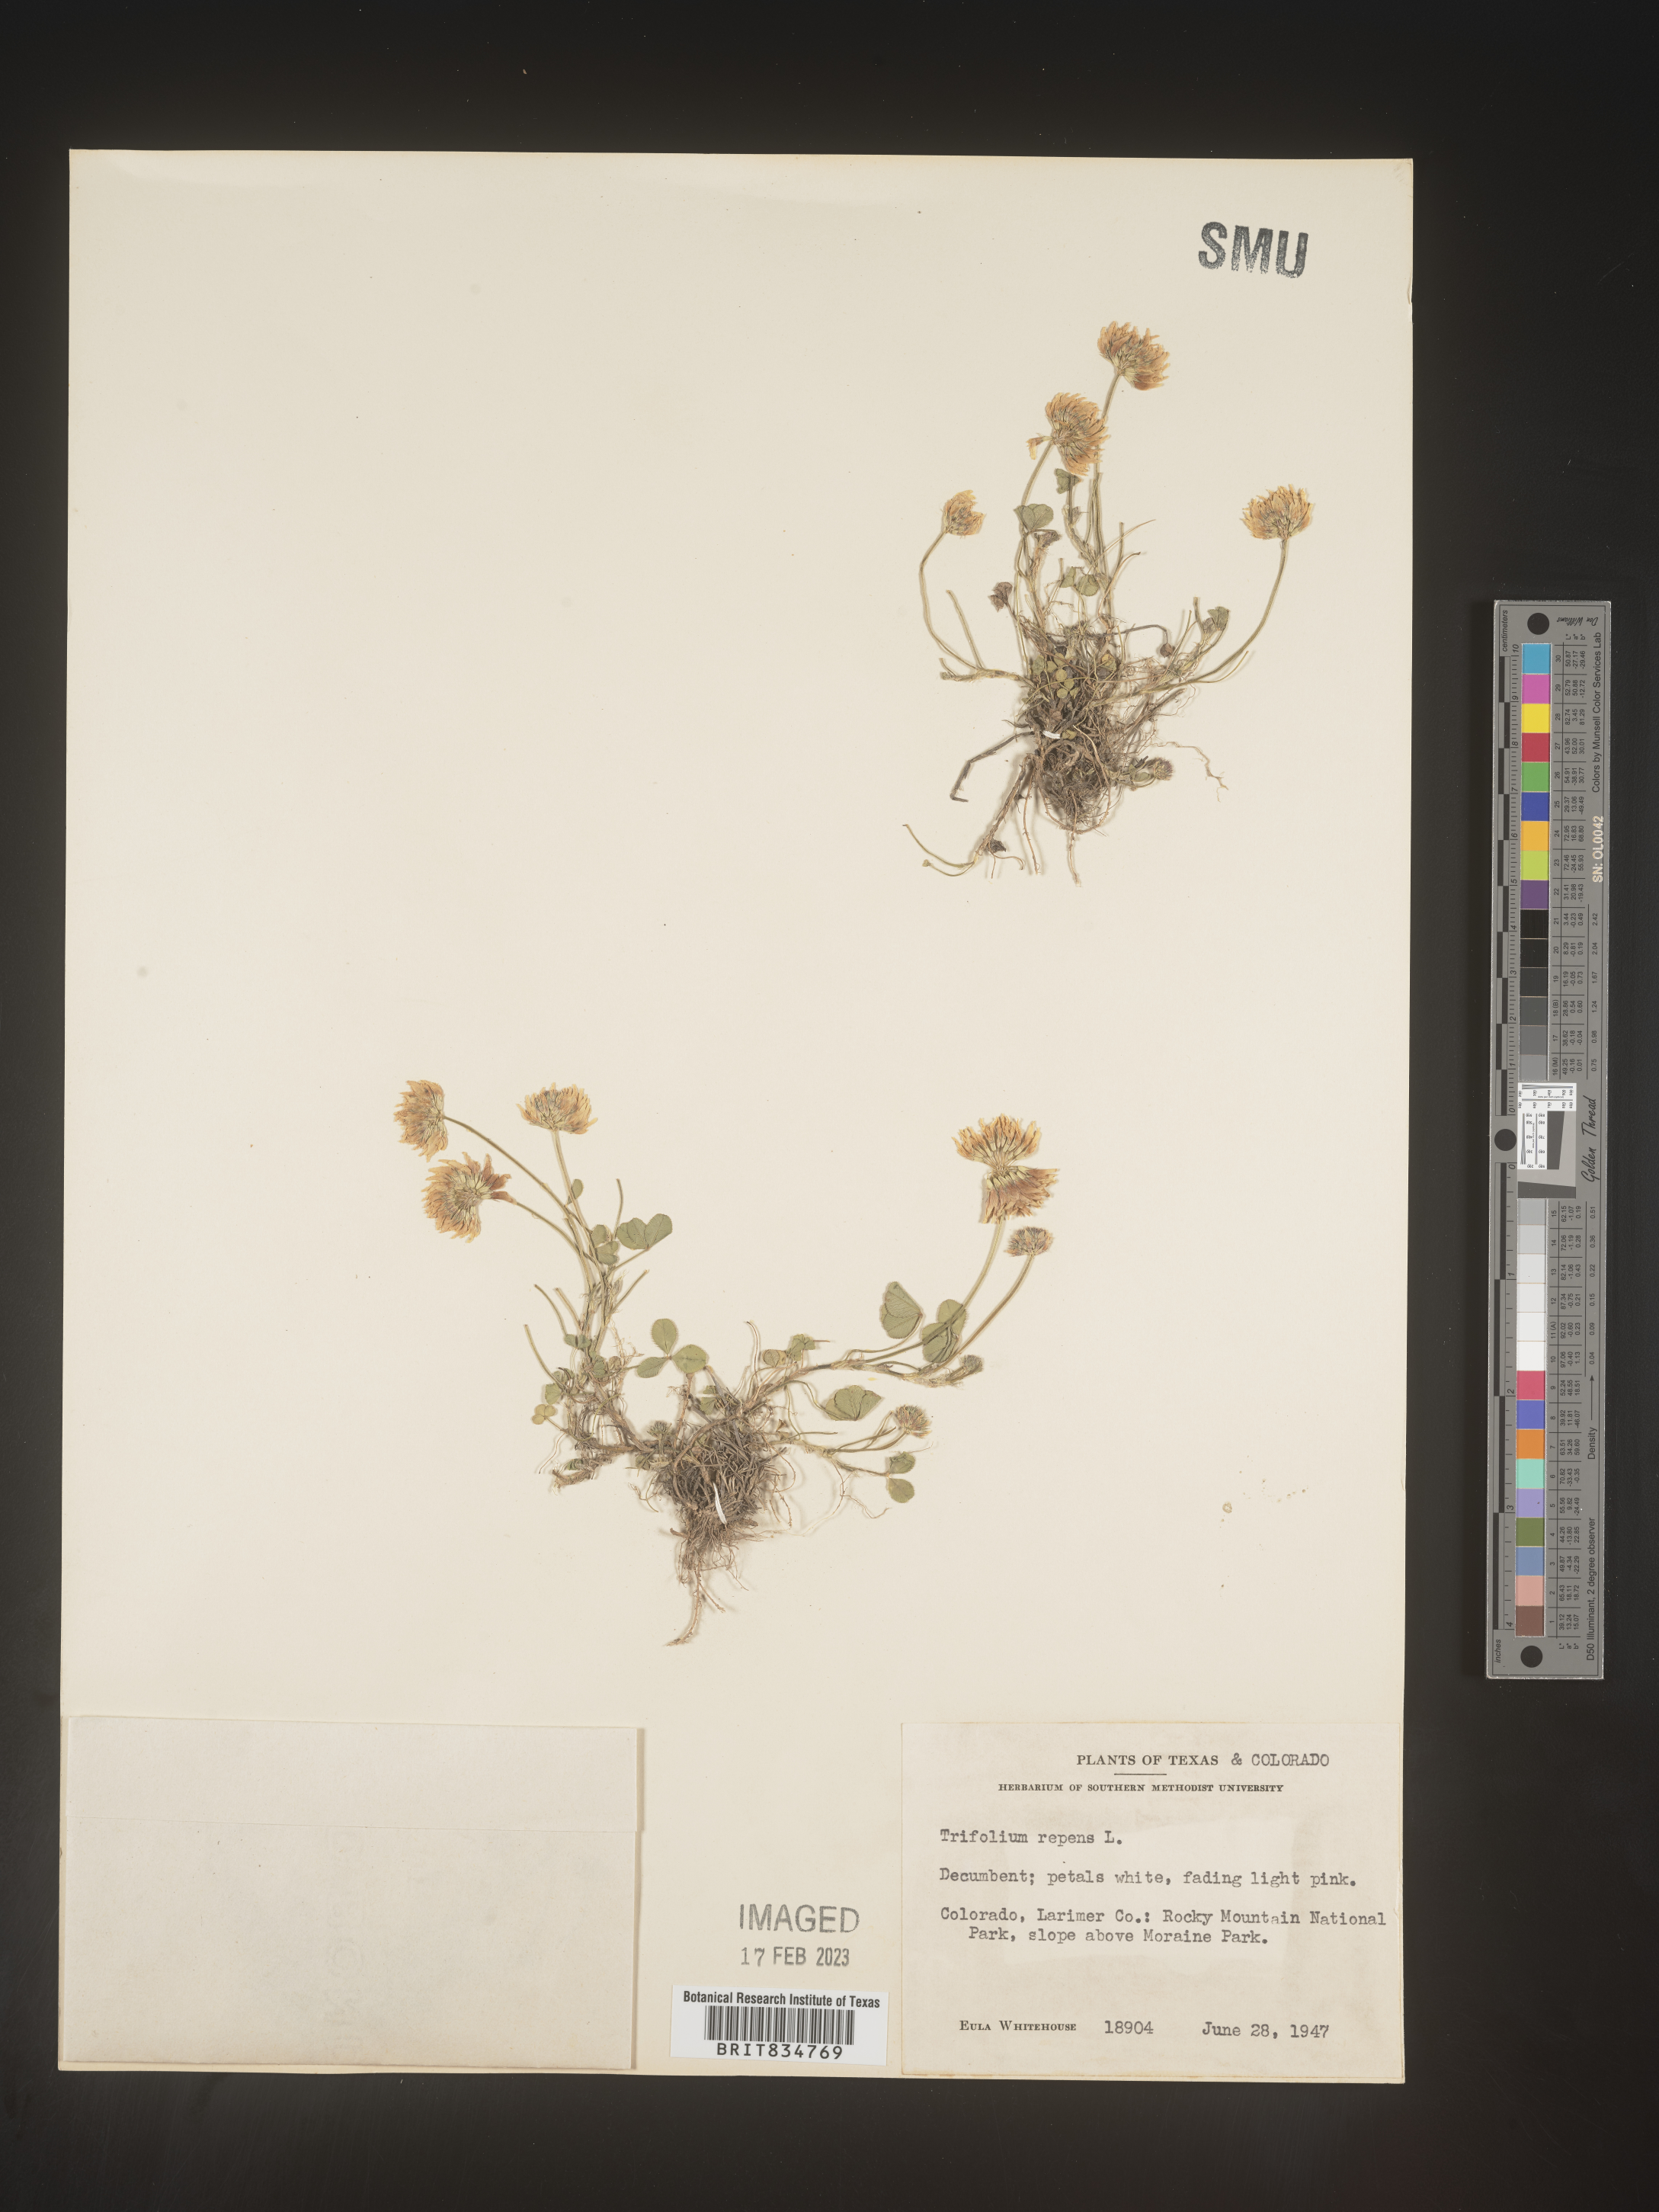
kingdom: Plantae
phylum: Tracheophyta
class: Magnoliopsida
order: Fabales
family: Fabaceae
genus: Trifolium
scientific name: Trifolium repens
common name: White clover
